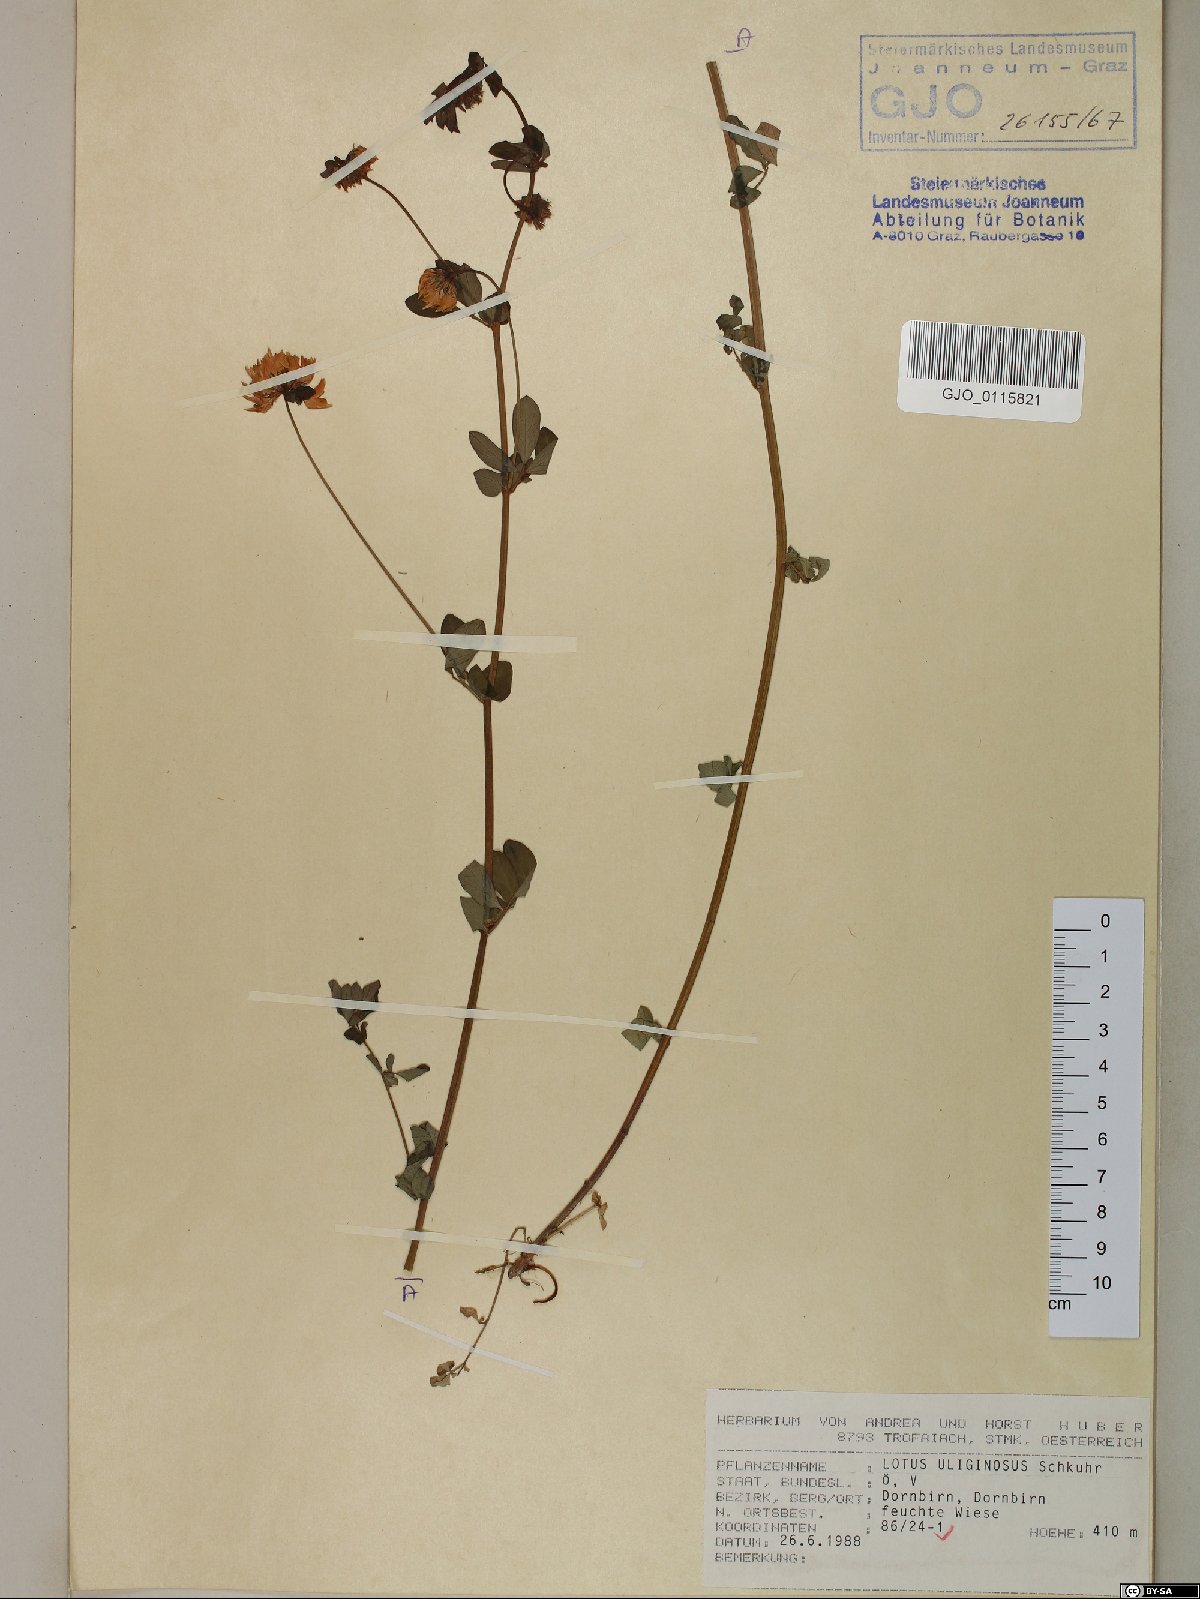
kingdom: Plantae
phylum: Tracheophyta
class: Magnoliopsida
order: Fabales
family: Fabaceae
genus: Lotus
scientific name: Lotus pedunculatus
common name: Greater birdsfoot-trefoil
